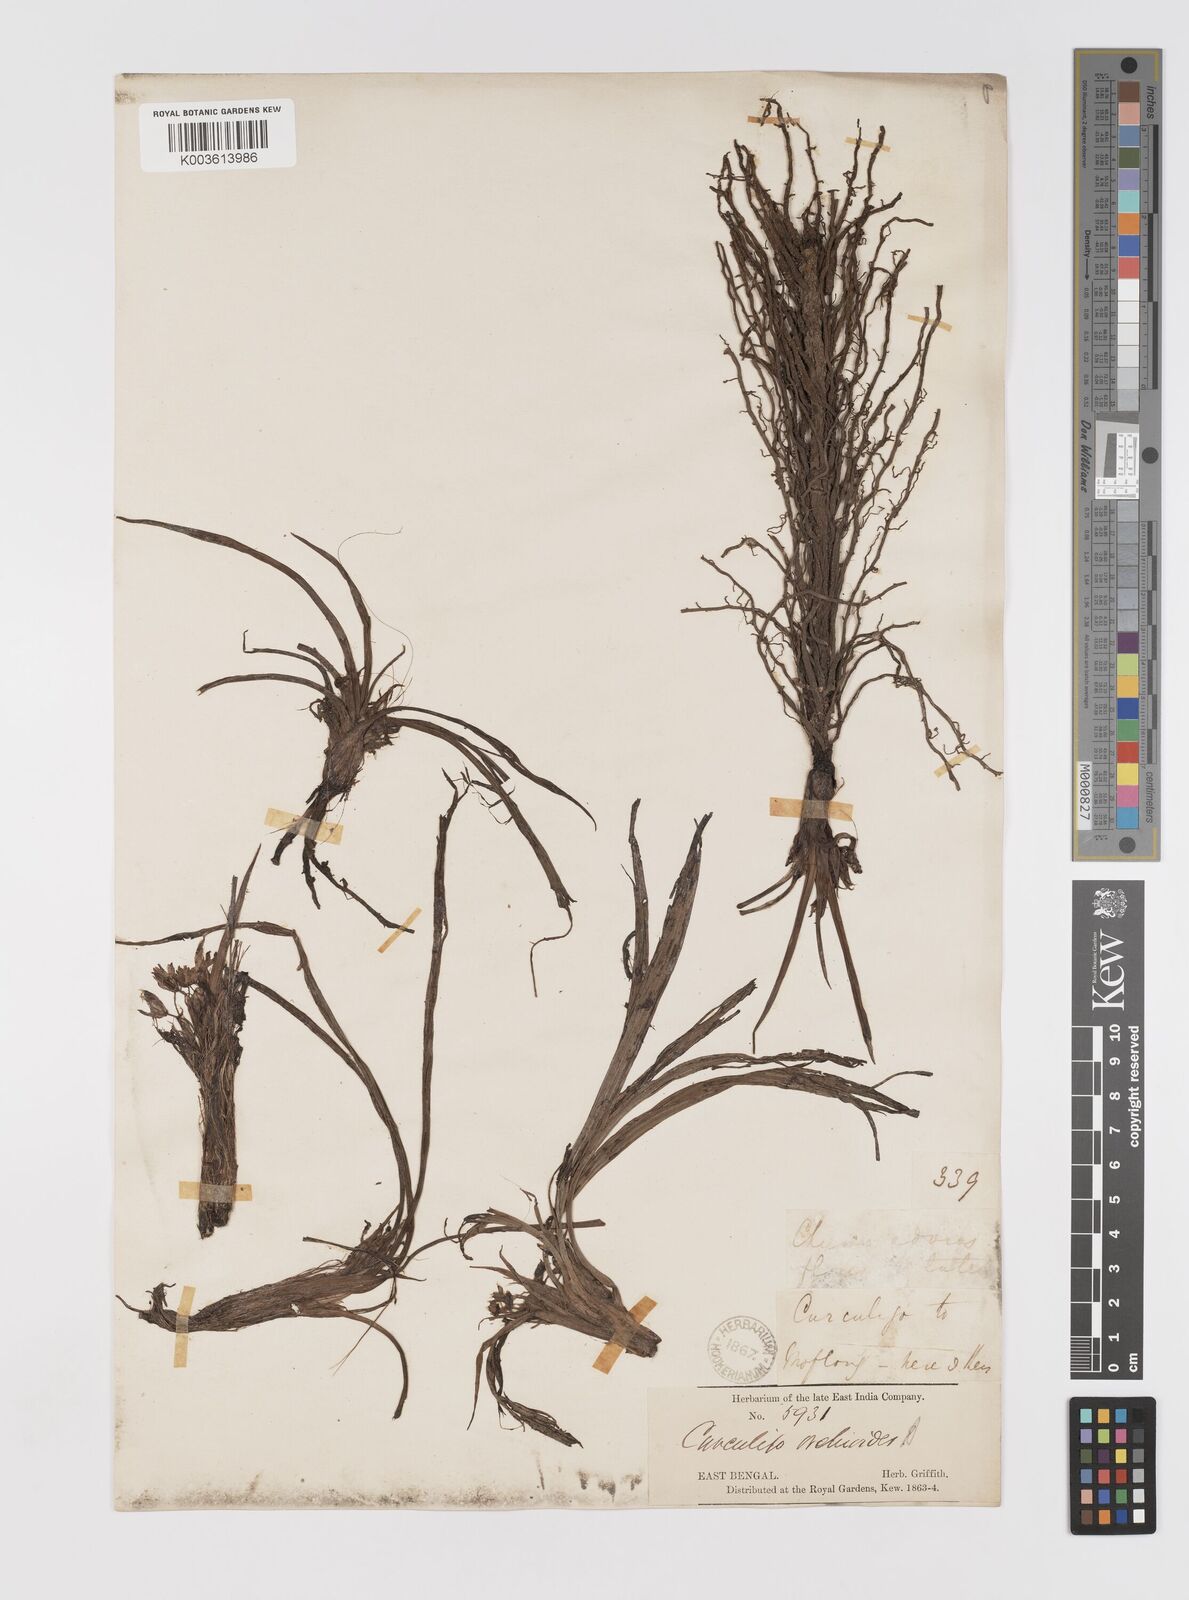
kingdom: Plantae
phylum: Tracheophyta
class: Liliopsida
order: Asparagales
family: Hypoxidaceae
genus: Curculigo
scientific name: Curculigo orchioides
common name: Golden eye-grass
